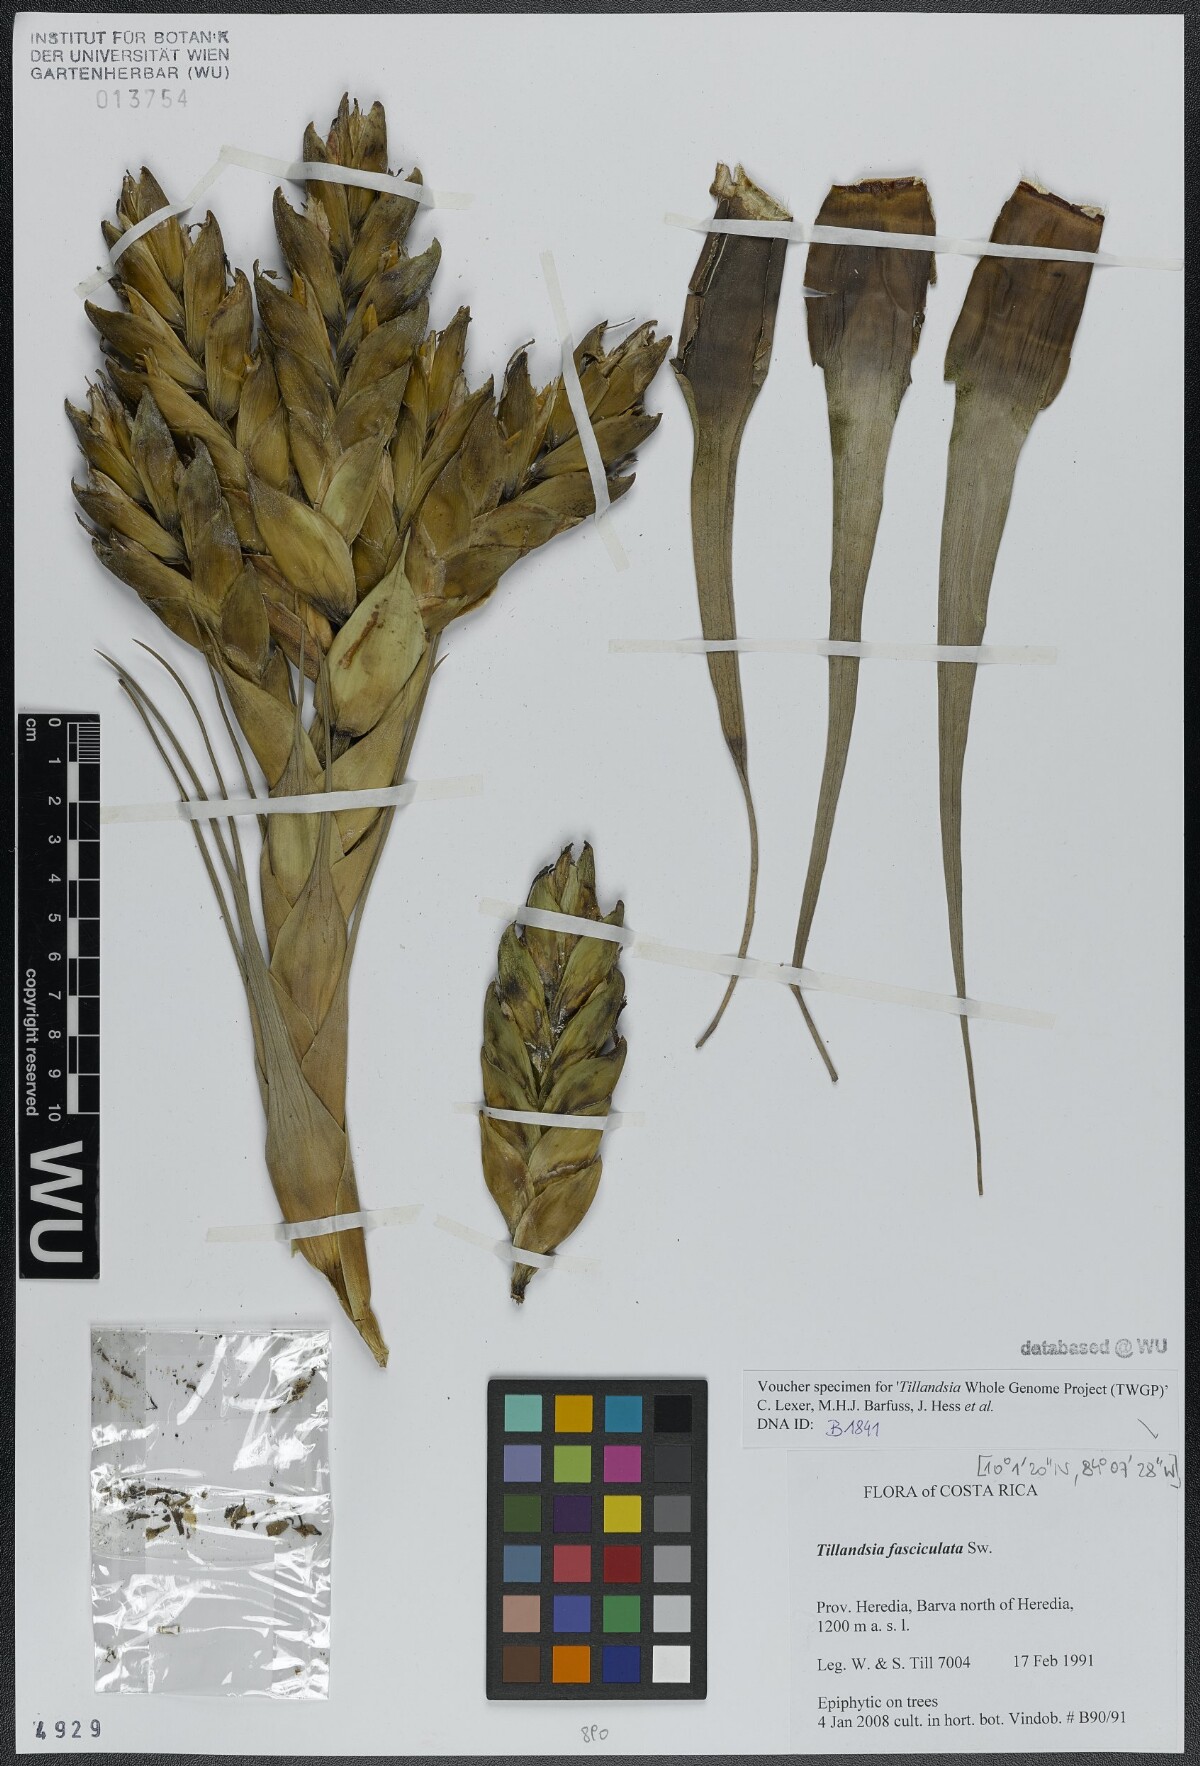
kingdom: Plantae
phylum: Tracheophyta
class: Liliopsida
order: Poales
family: Bromeliaceae
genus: Tillandsia
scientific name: Tillandsia fasciculata
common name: Giant airplant
